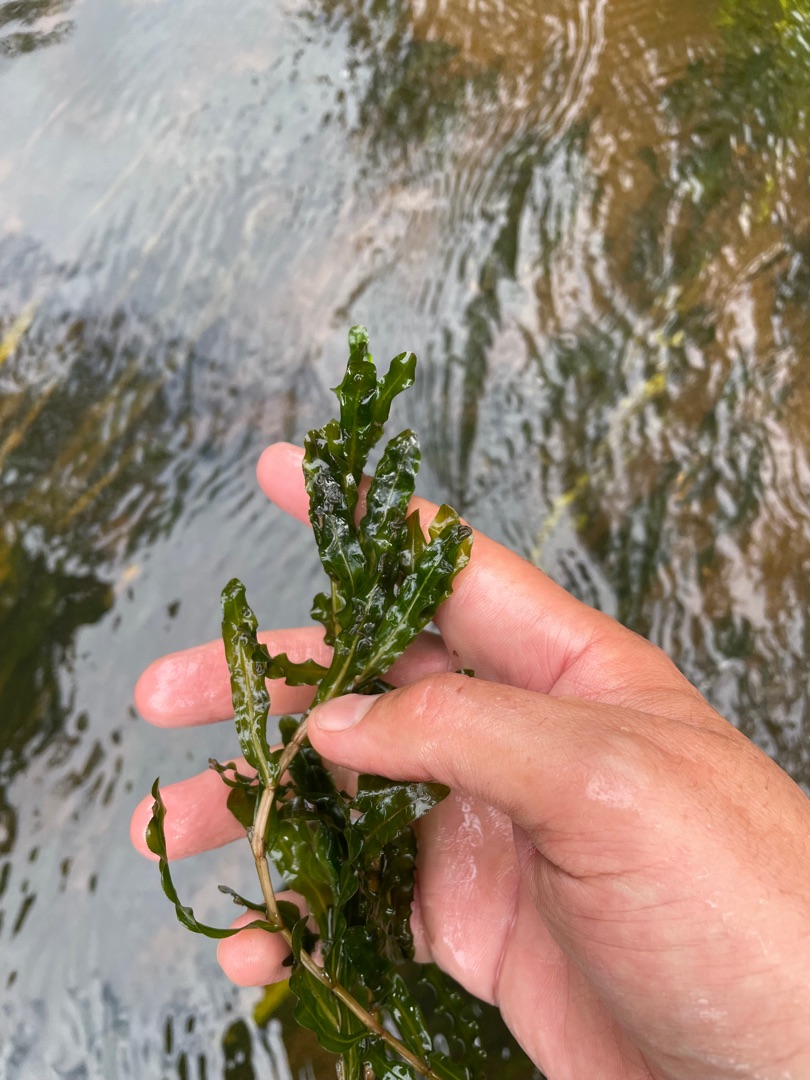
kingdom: Plantae
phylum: Tracheophyta
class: Liliopsida
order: Alismatales
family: Potamogetonaceae
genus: Potamogeton
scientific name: Potamogeton crispus
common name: Kruset vandaks
